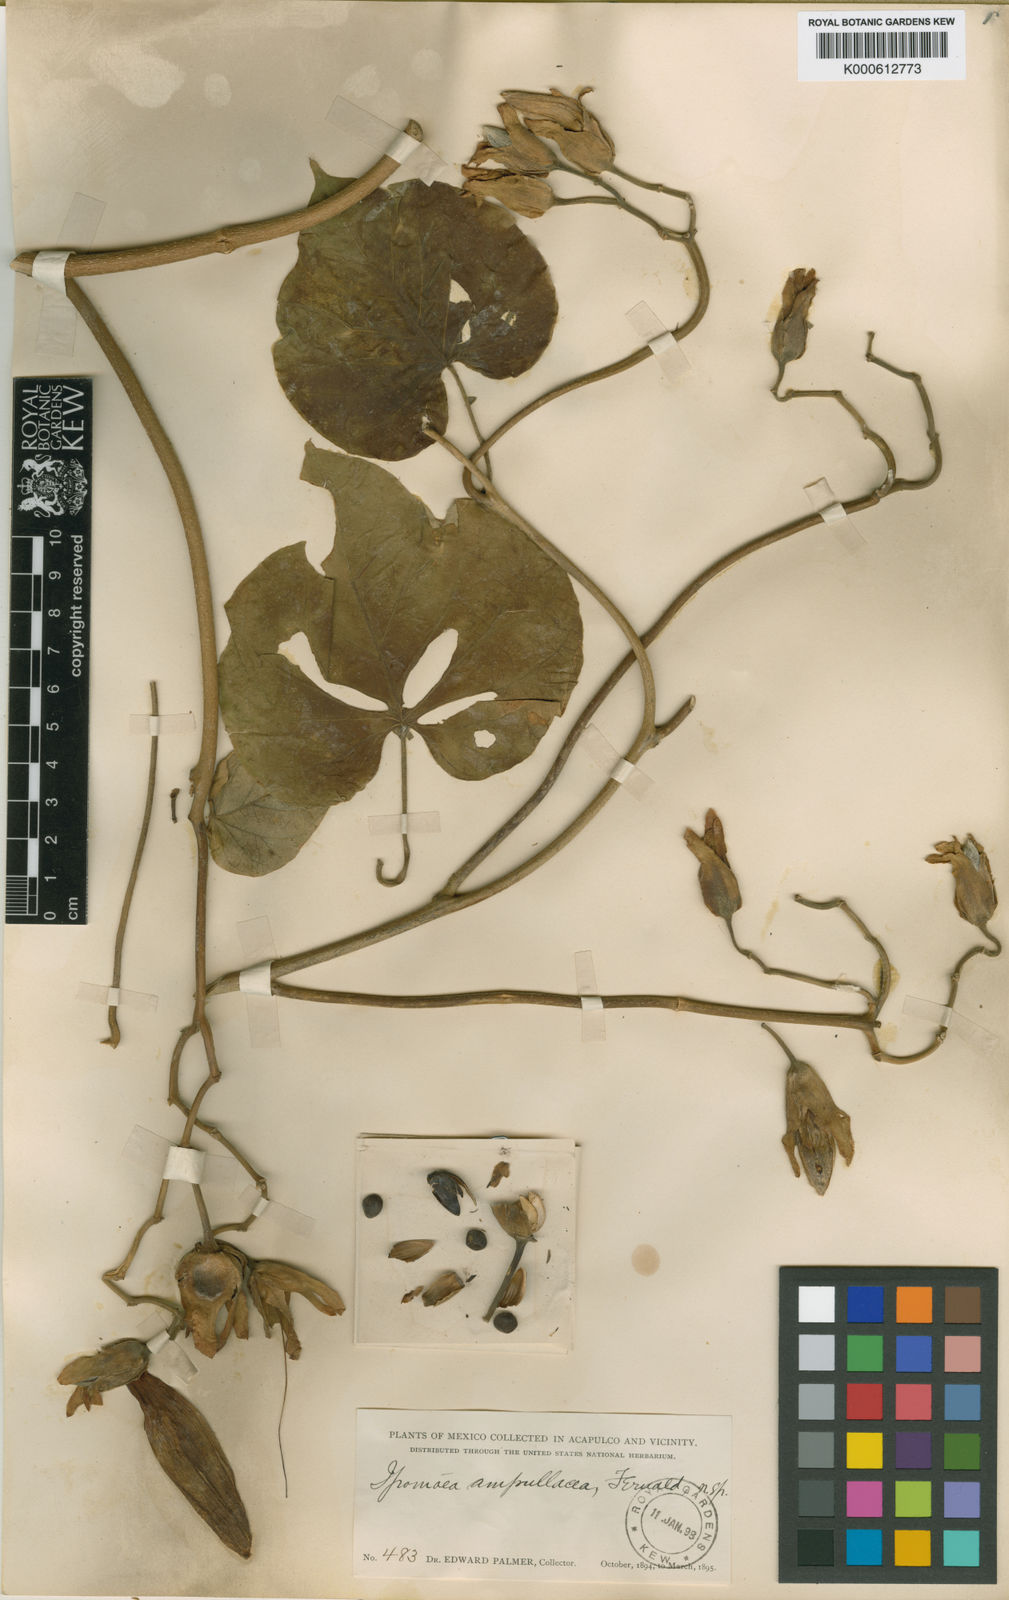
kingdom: Plantae
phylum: Tracheophyta
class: Magnoliopsida
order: Solanales
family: Convolvulaceae
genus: Ipomoea
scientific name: Ipomoea ampullacea
